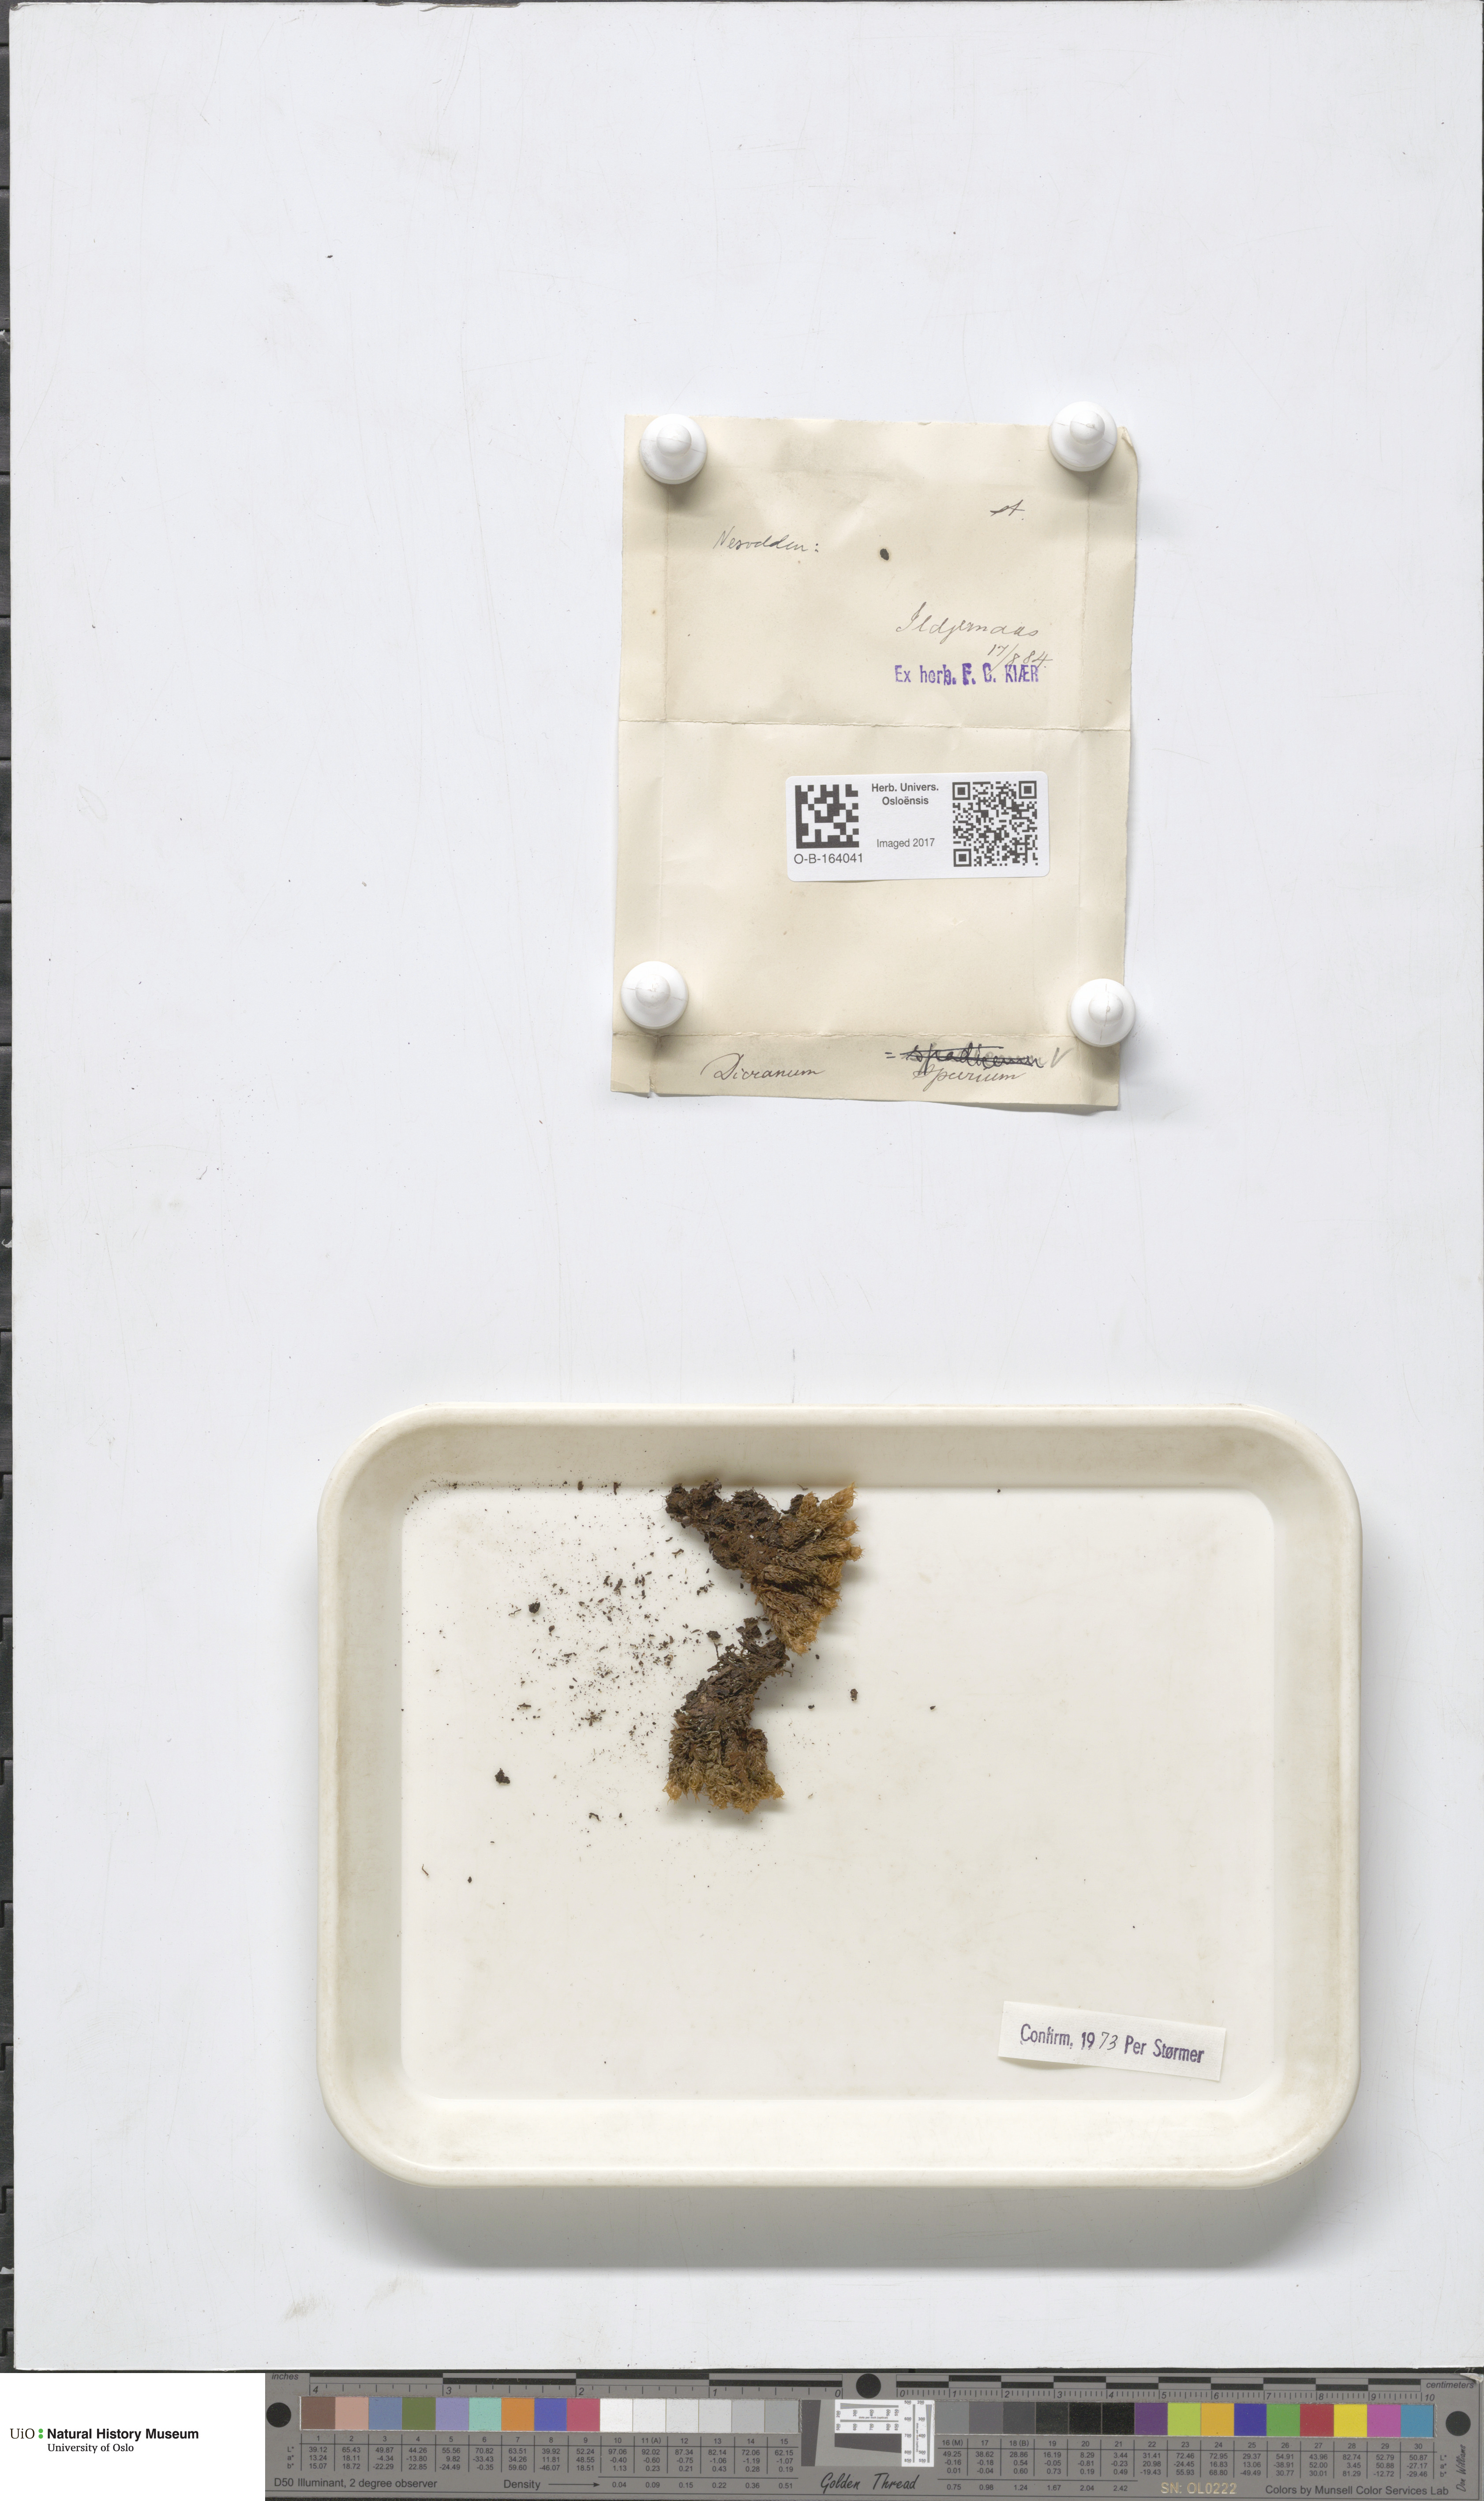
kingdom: Plantae
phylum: Bryophyta
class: Bryopsida
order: Dicranales
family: Dicranaceae
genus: Dicranum
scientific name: Dicranum spurium
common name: Spurred broom moss
